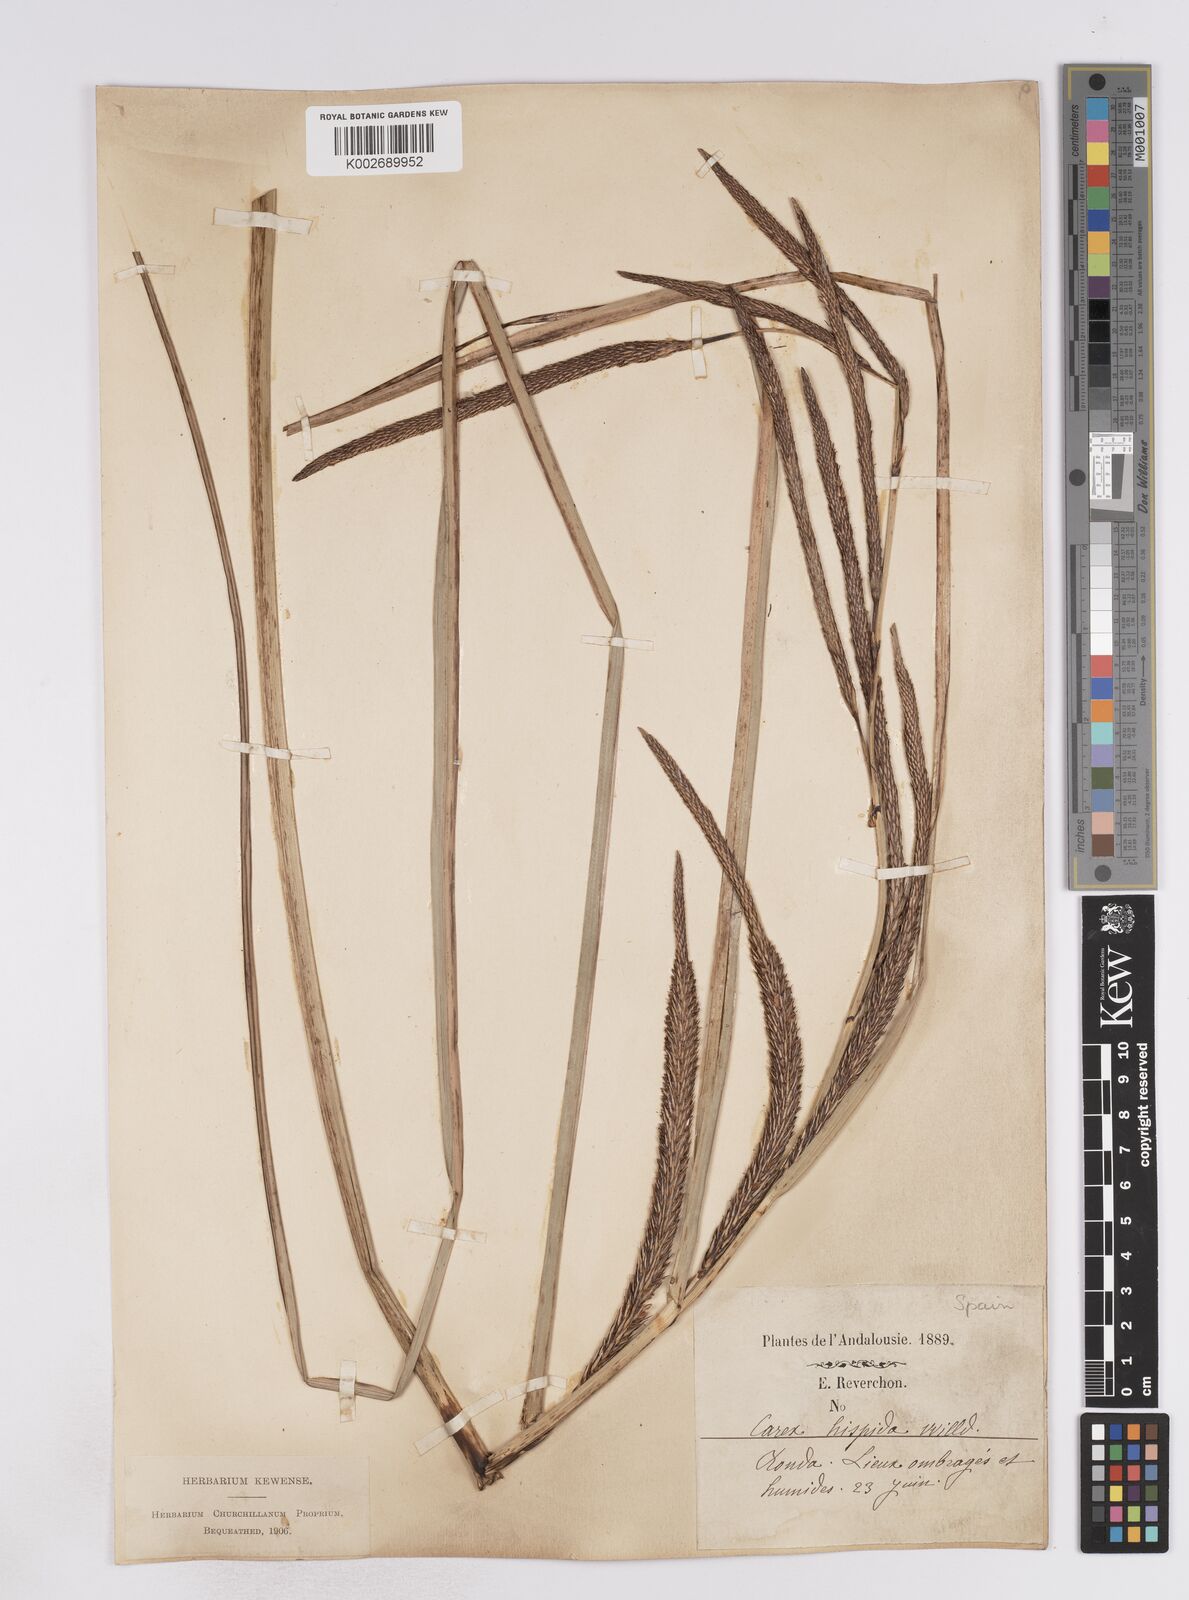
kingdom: Plantae
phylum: Tracheophyta
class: Liliopsida
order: Poales
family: Cyperaceae
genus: Carex
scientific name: Carex hispida
